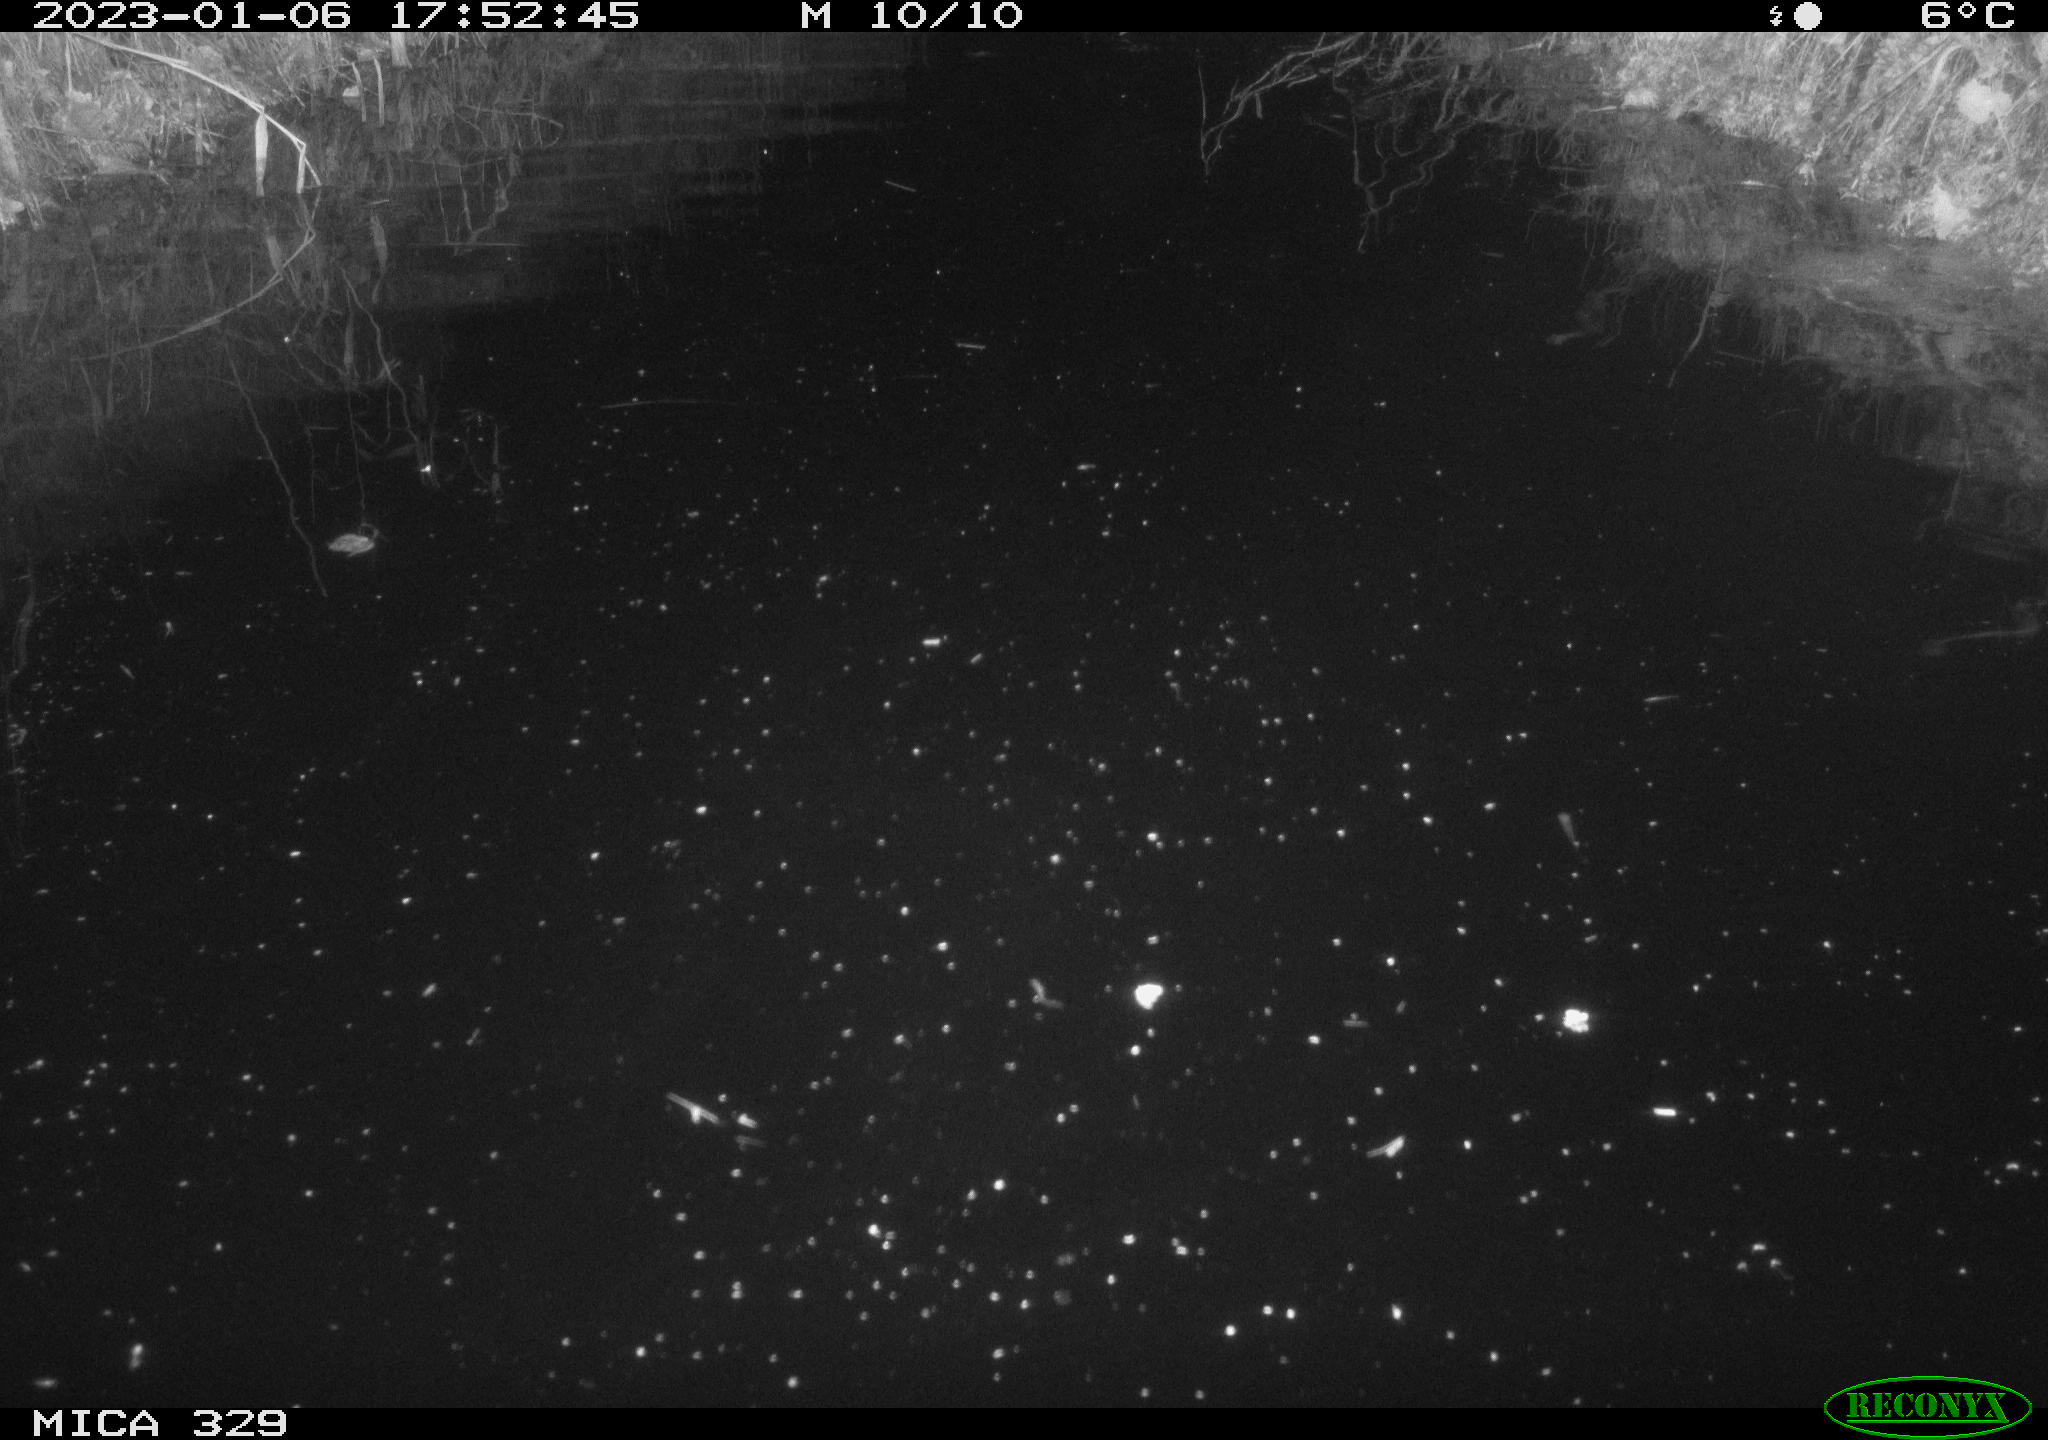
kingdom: Animalia
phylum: Chordata
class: Mammalia
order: Rodentia
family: Cricetidae
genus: Ondatra
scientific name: Ondatra zibethicus
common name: Muskrat
